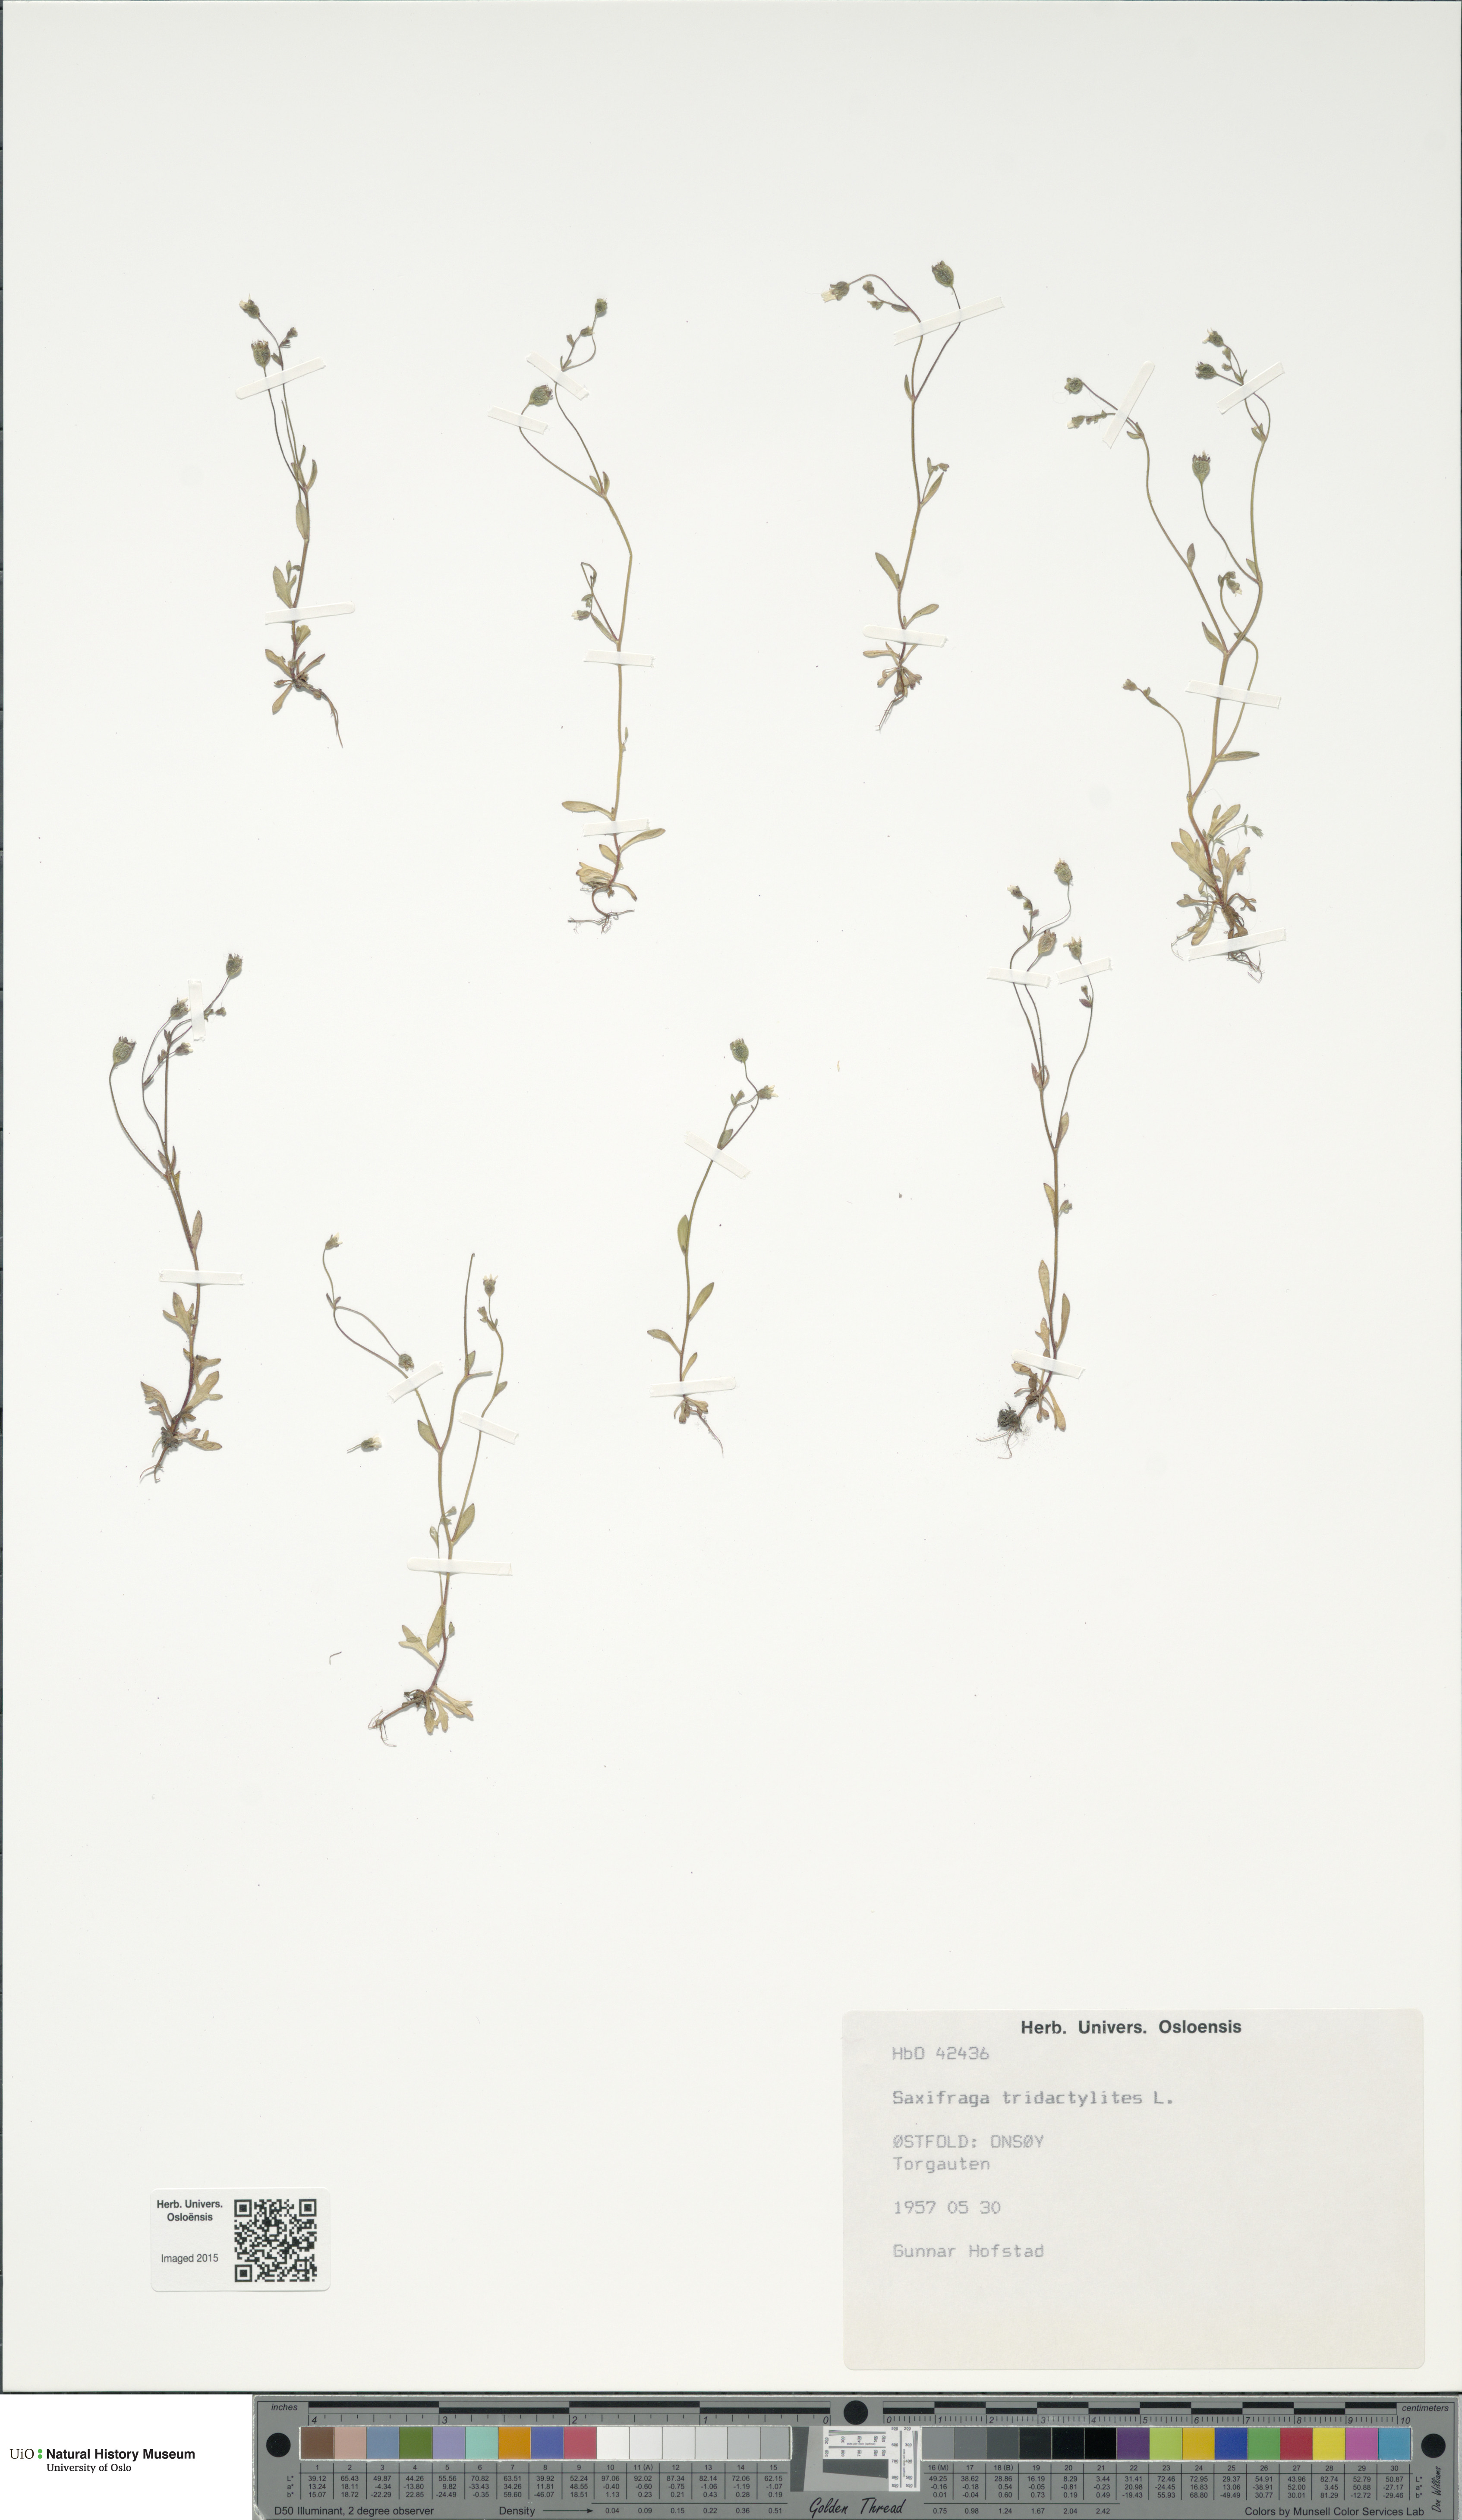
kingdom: Plantae
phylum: Tracheophyta
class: Magnoliopsida
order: Saxifragales
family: Saxifragaceae
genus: Saxifraga
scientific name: Saxifraga tridactylites
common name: Rue-leaved saxifrage
